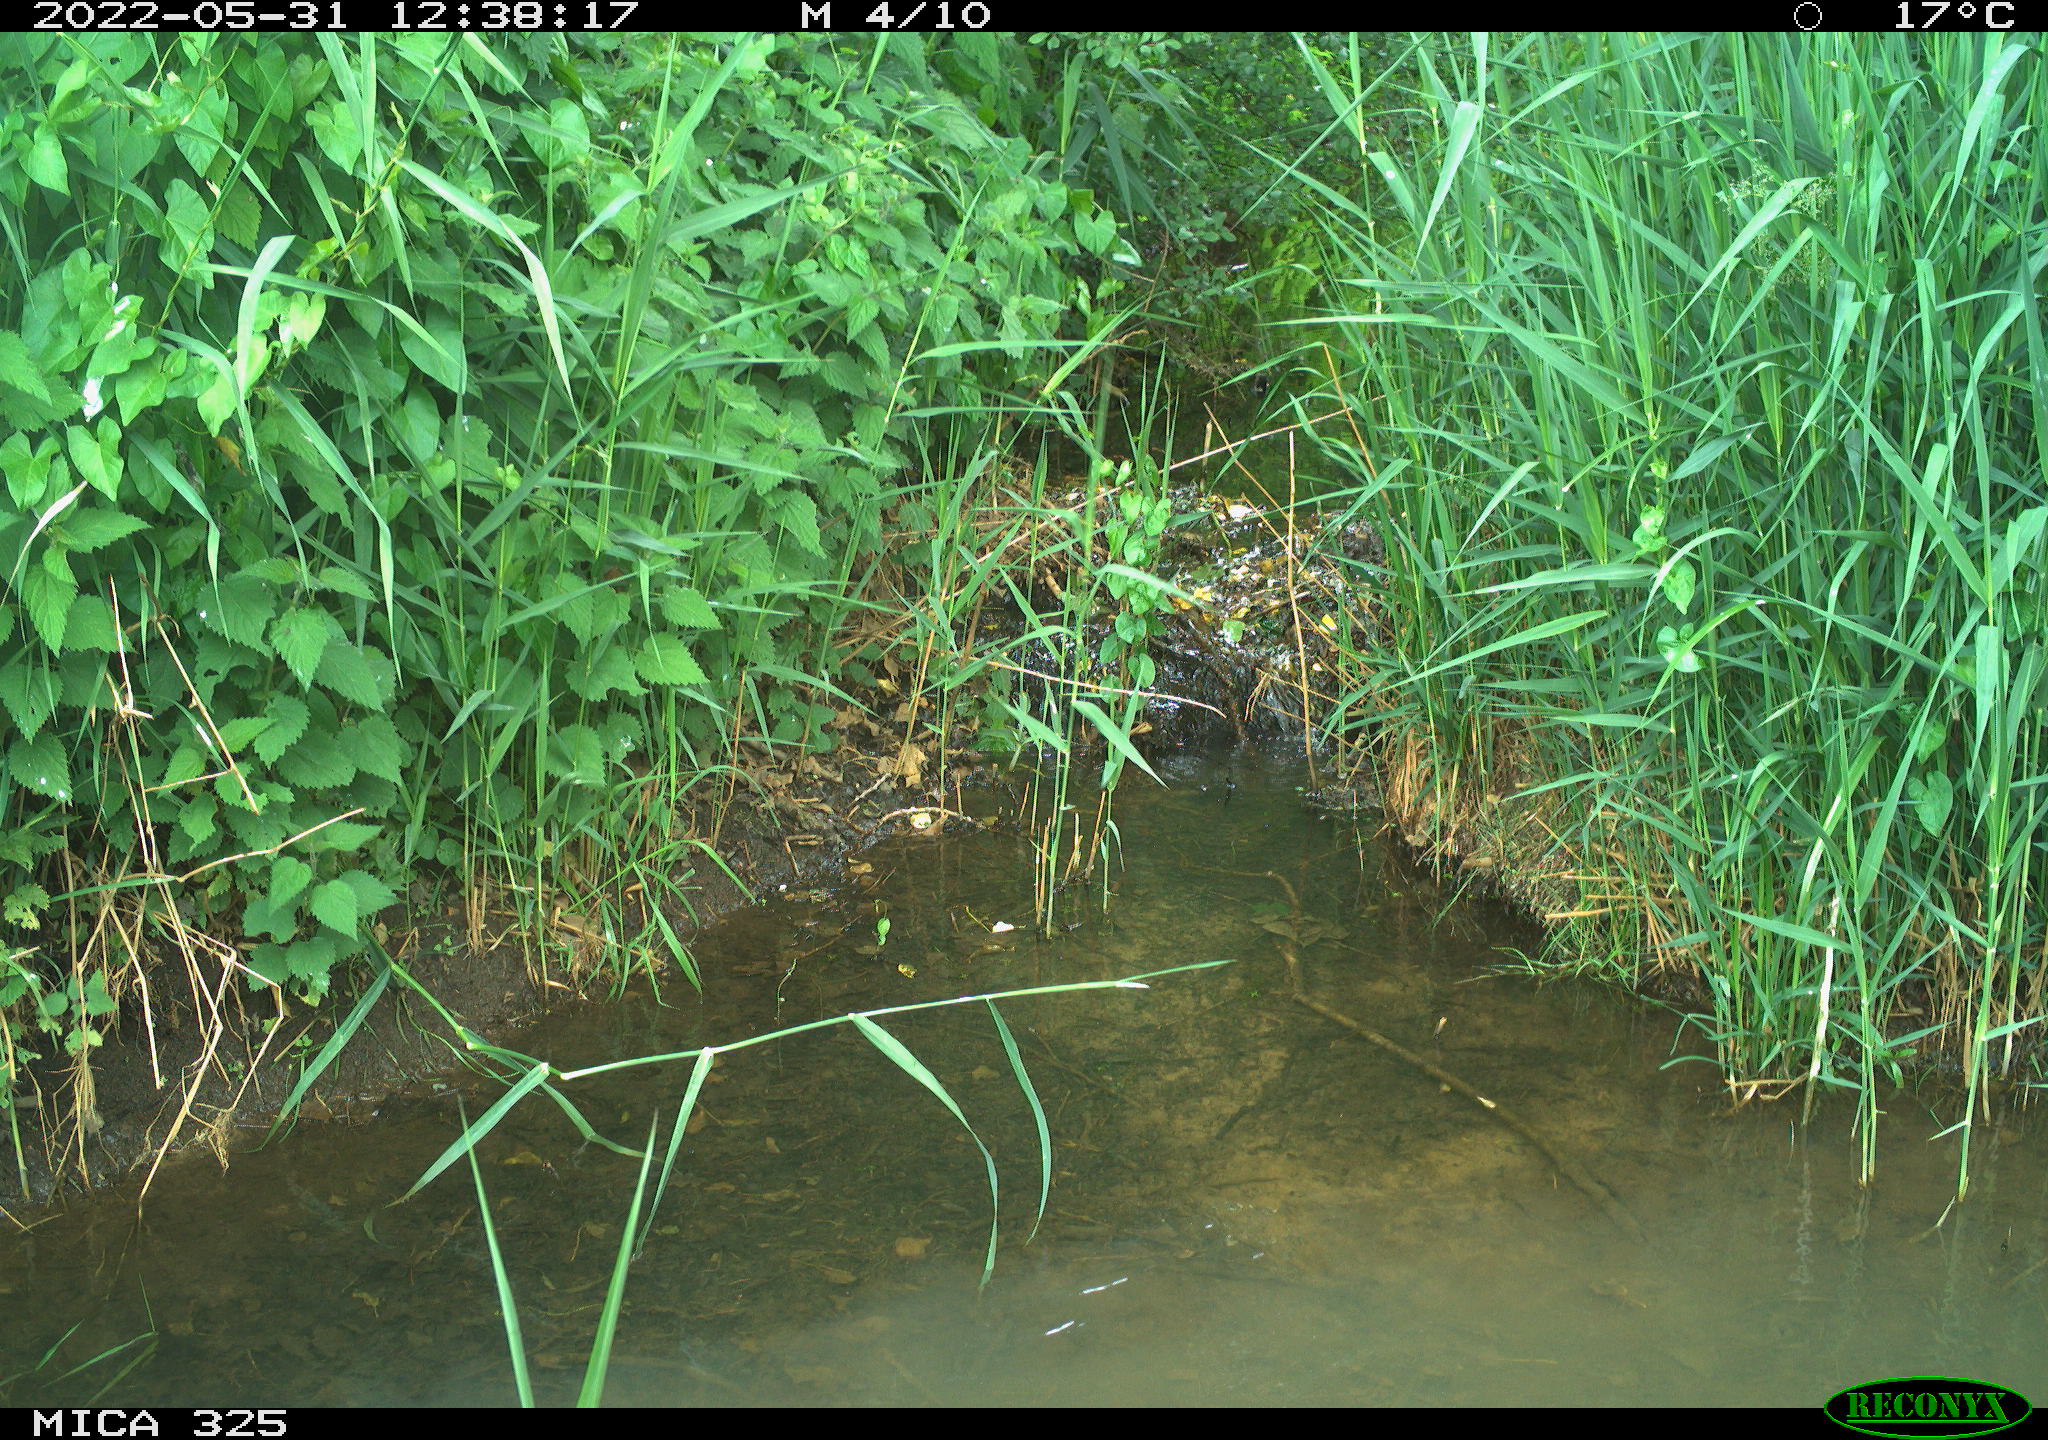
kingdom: Animalia
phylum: Chordata
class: Aves
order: Columbiformes
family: Columbidae
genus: Columba
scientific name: Columba palumbus
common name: Common wood pigeon
